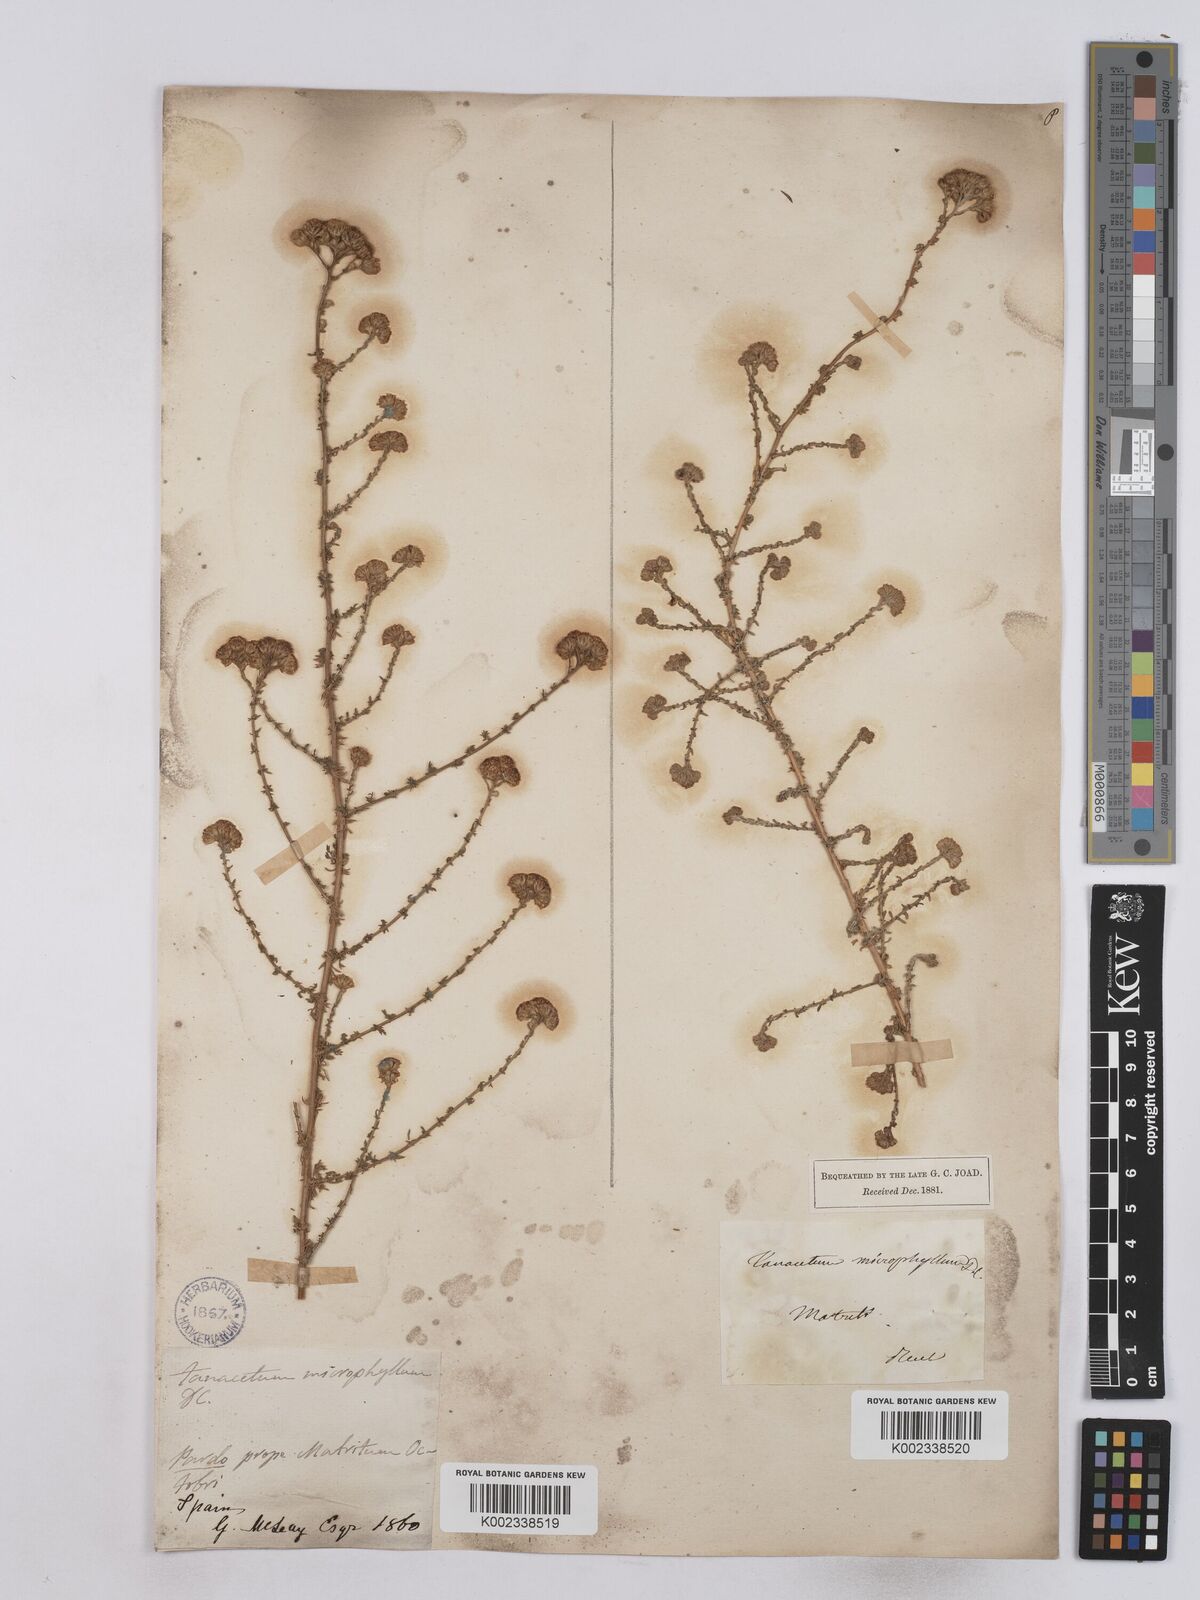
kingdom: Plantae
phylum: Tracheophyta
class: Magnoliopsida
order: Asterales
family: Asteraceae
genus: Vogtia
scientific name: Vogtia microphylla
